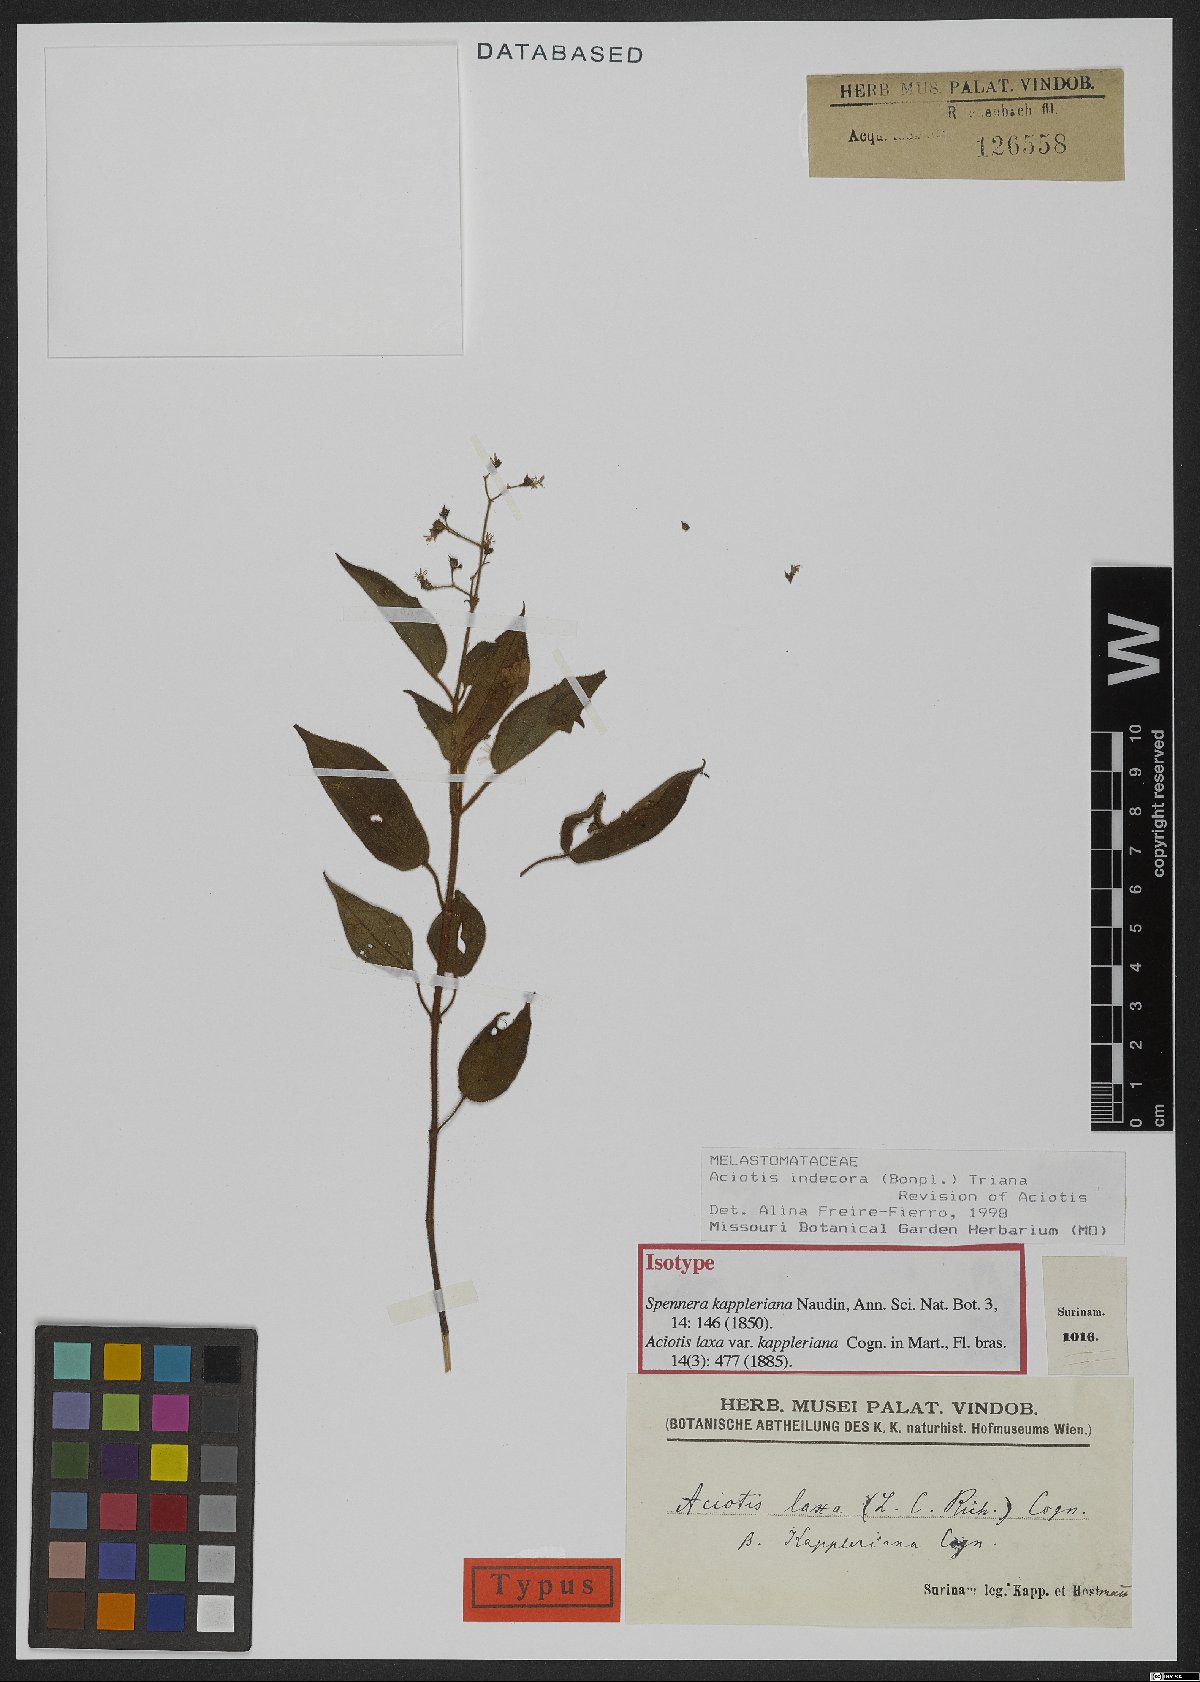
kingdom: Plantae
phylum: Tracheophyta
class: Magnoliopsida
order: Myrtales
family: Melastomataceae
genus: Aciotis
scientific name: Aciotis indecora
